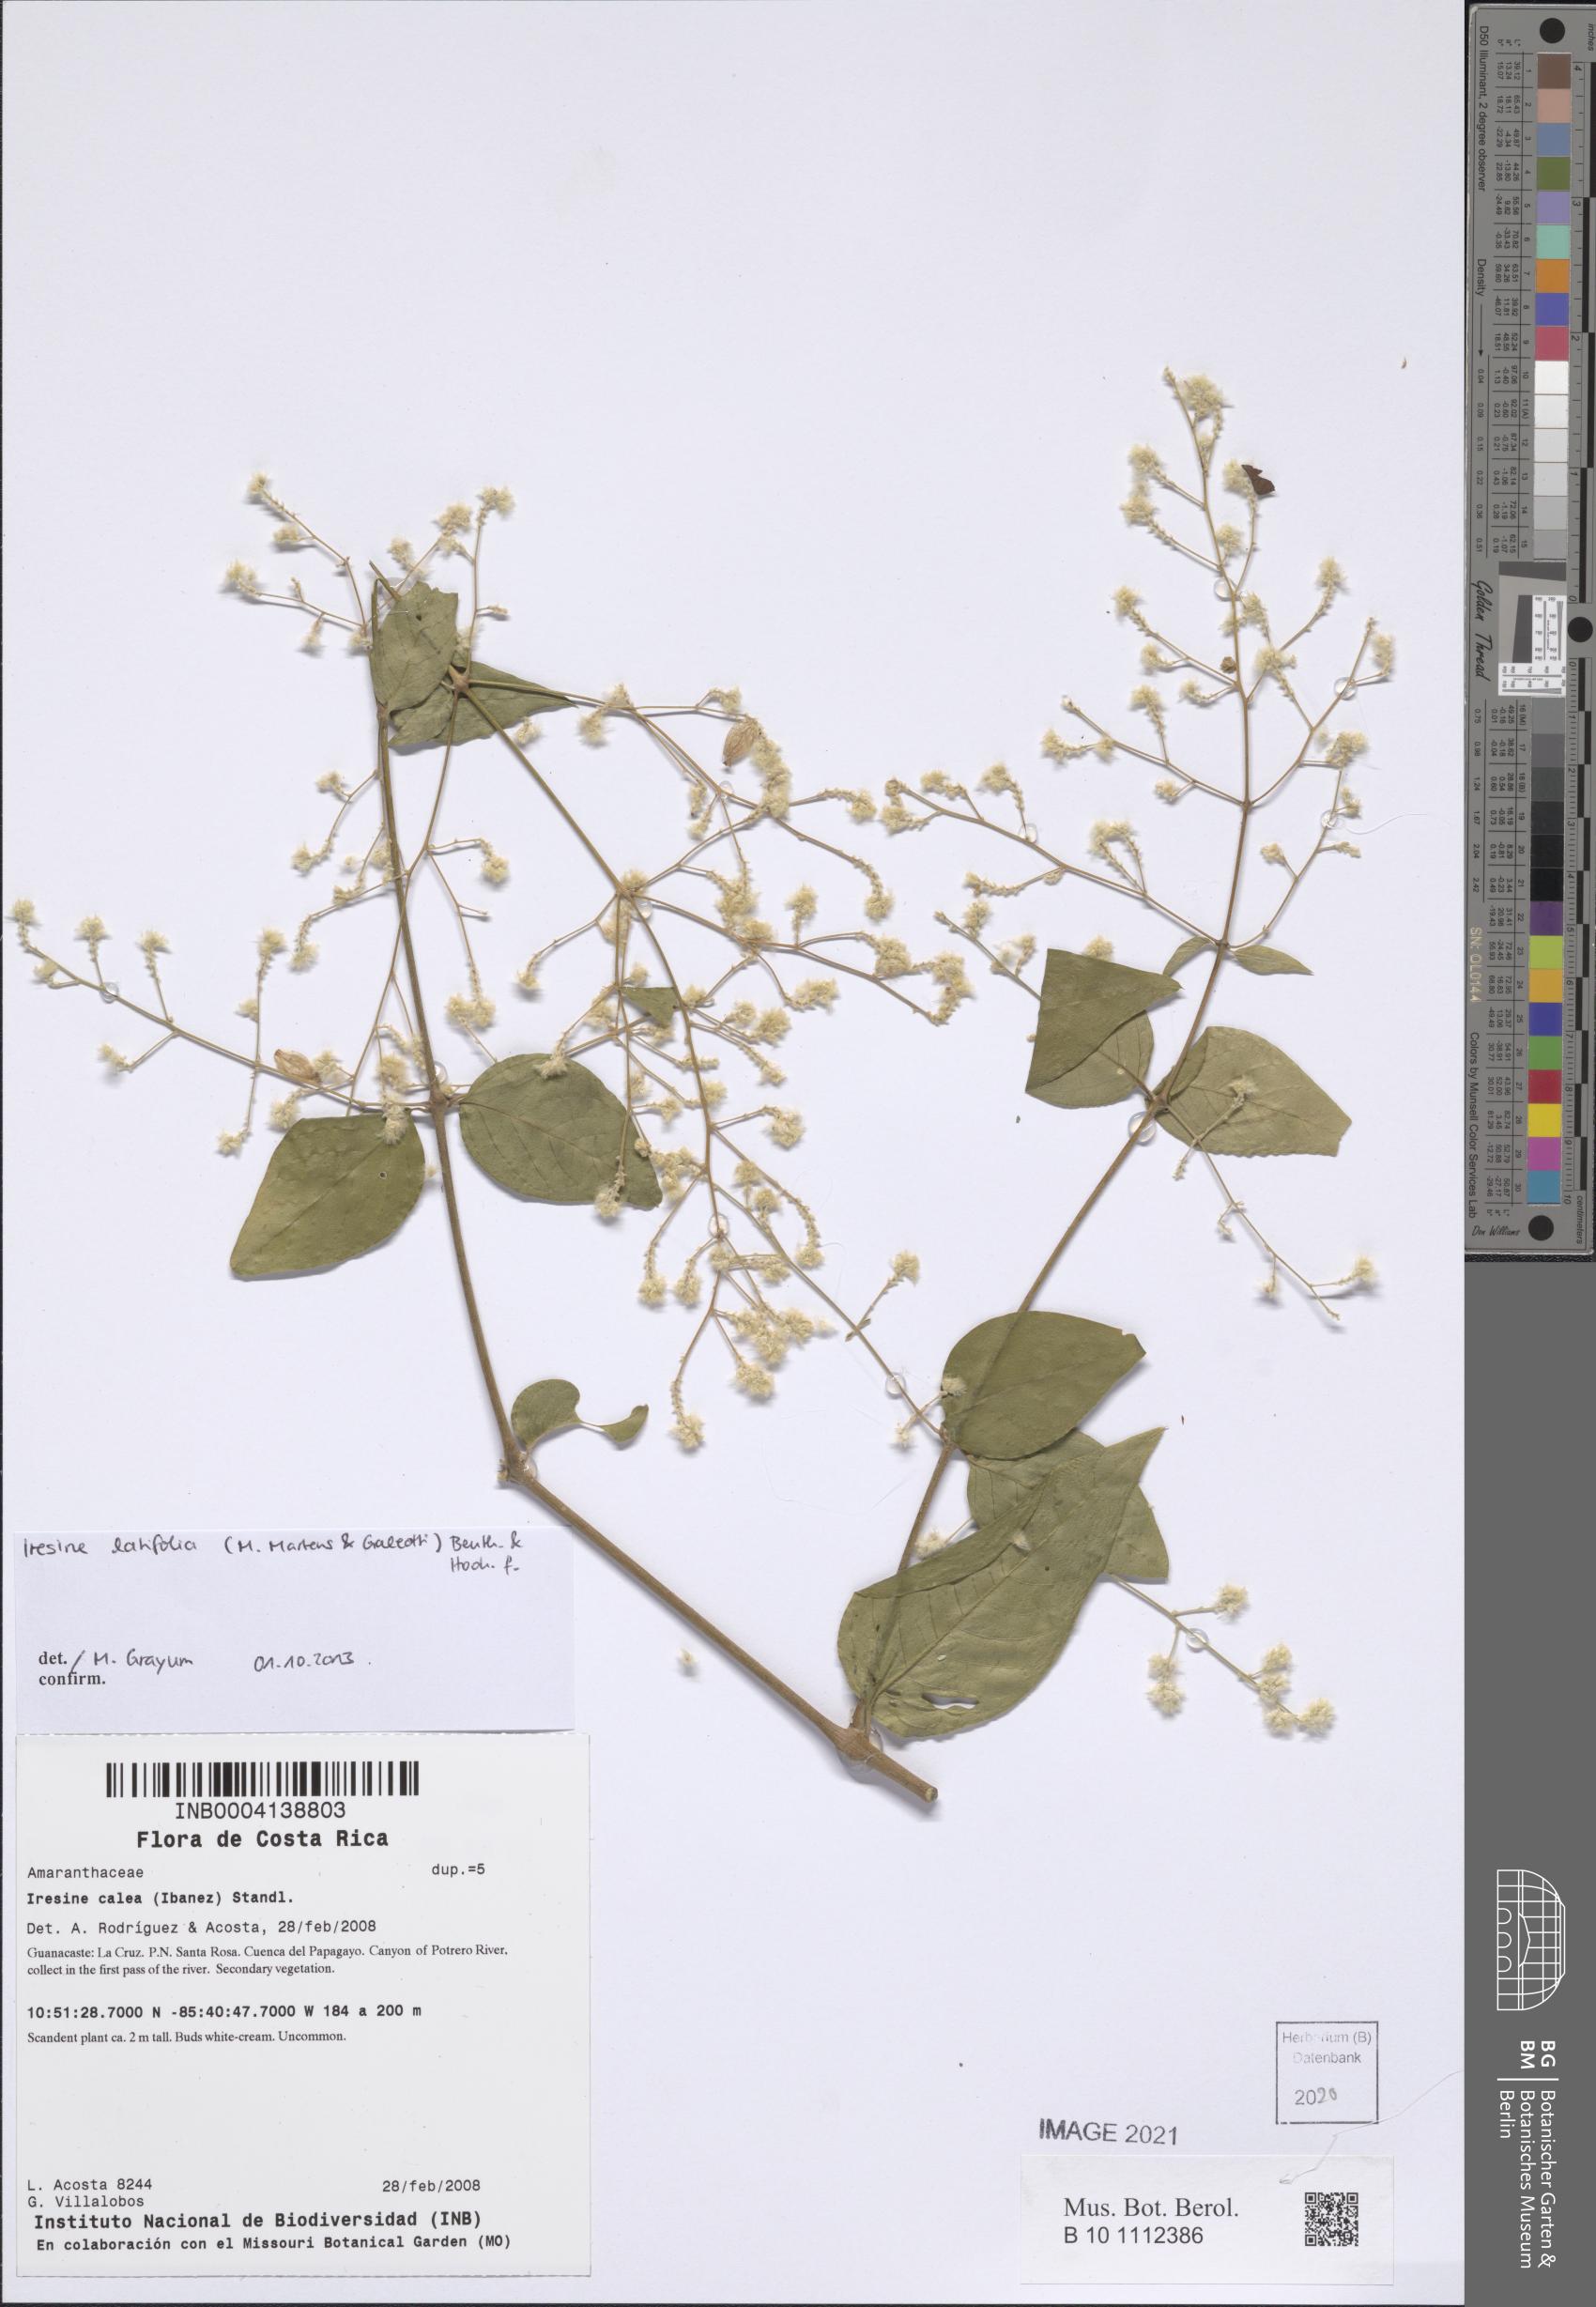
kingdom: Plantae
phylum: Tracheophyta
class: Magnoliopsida
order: Caryophyllales
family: Amaranthaceae
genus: Iresine
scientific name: Iresine latifolia
